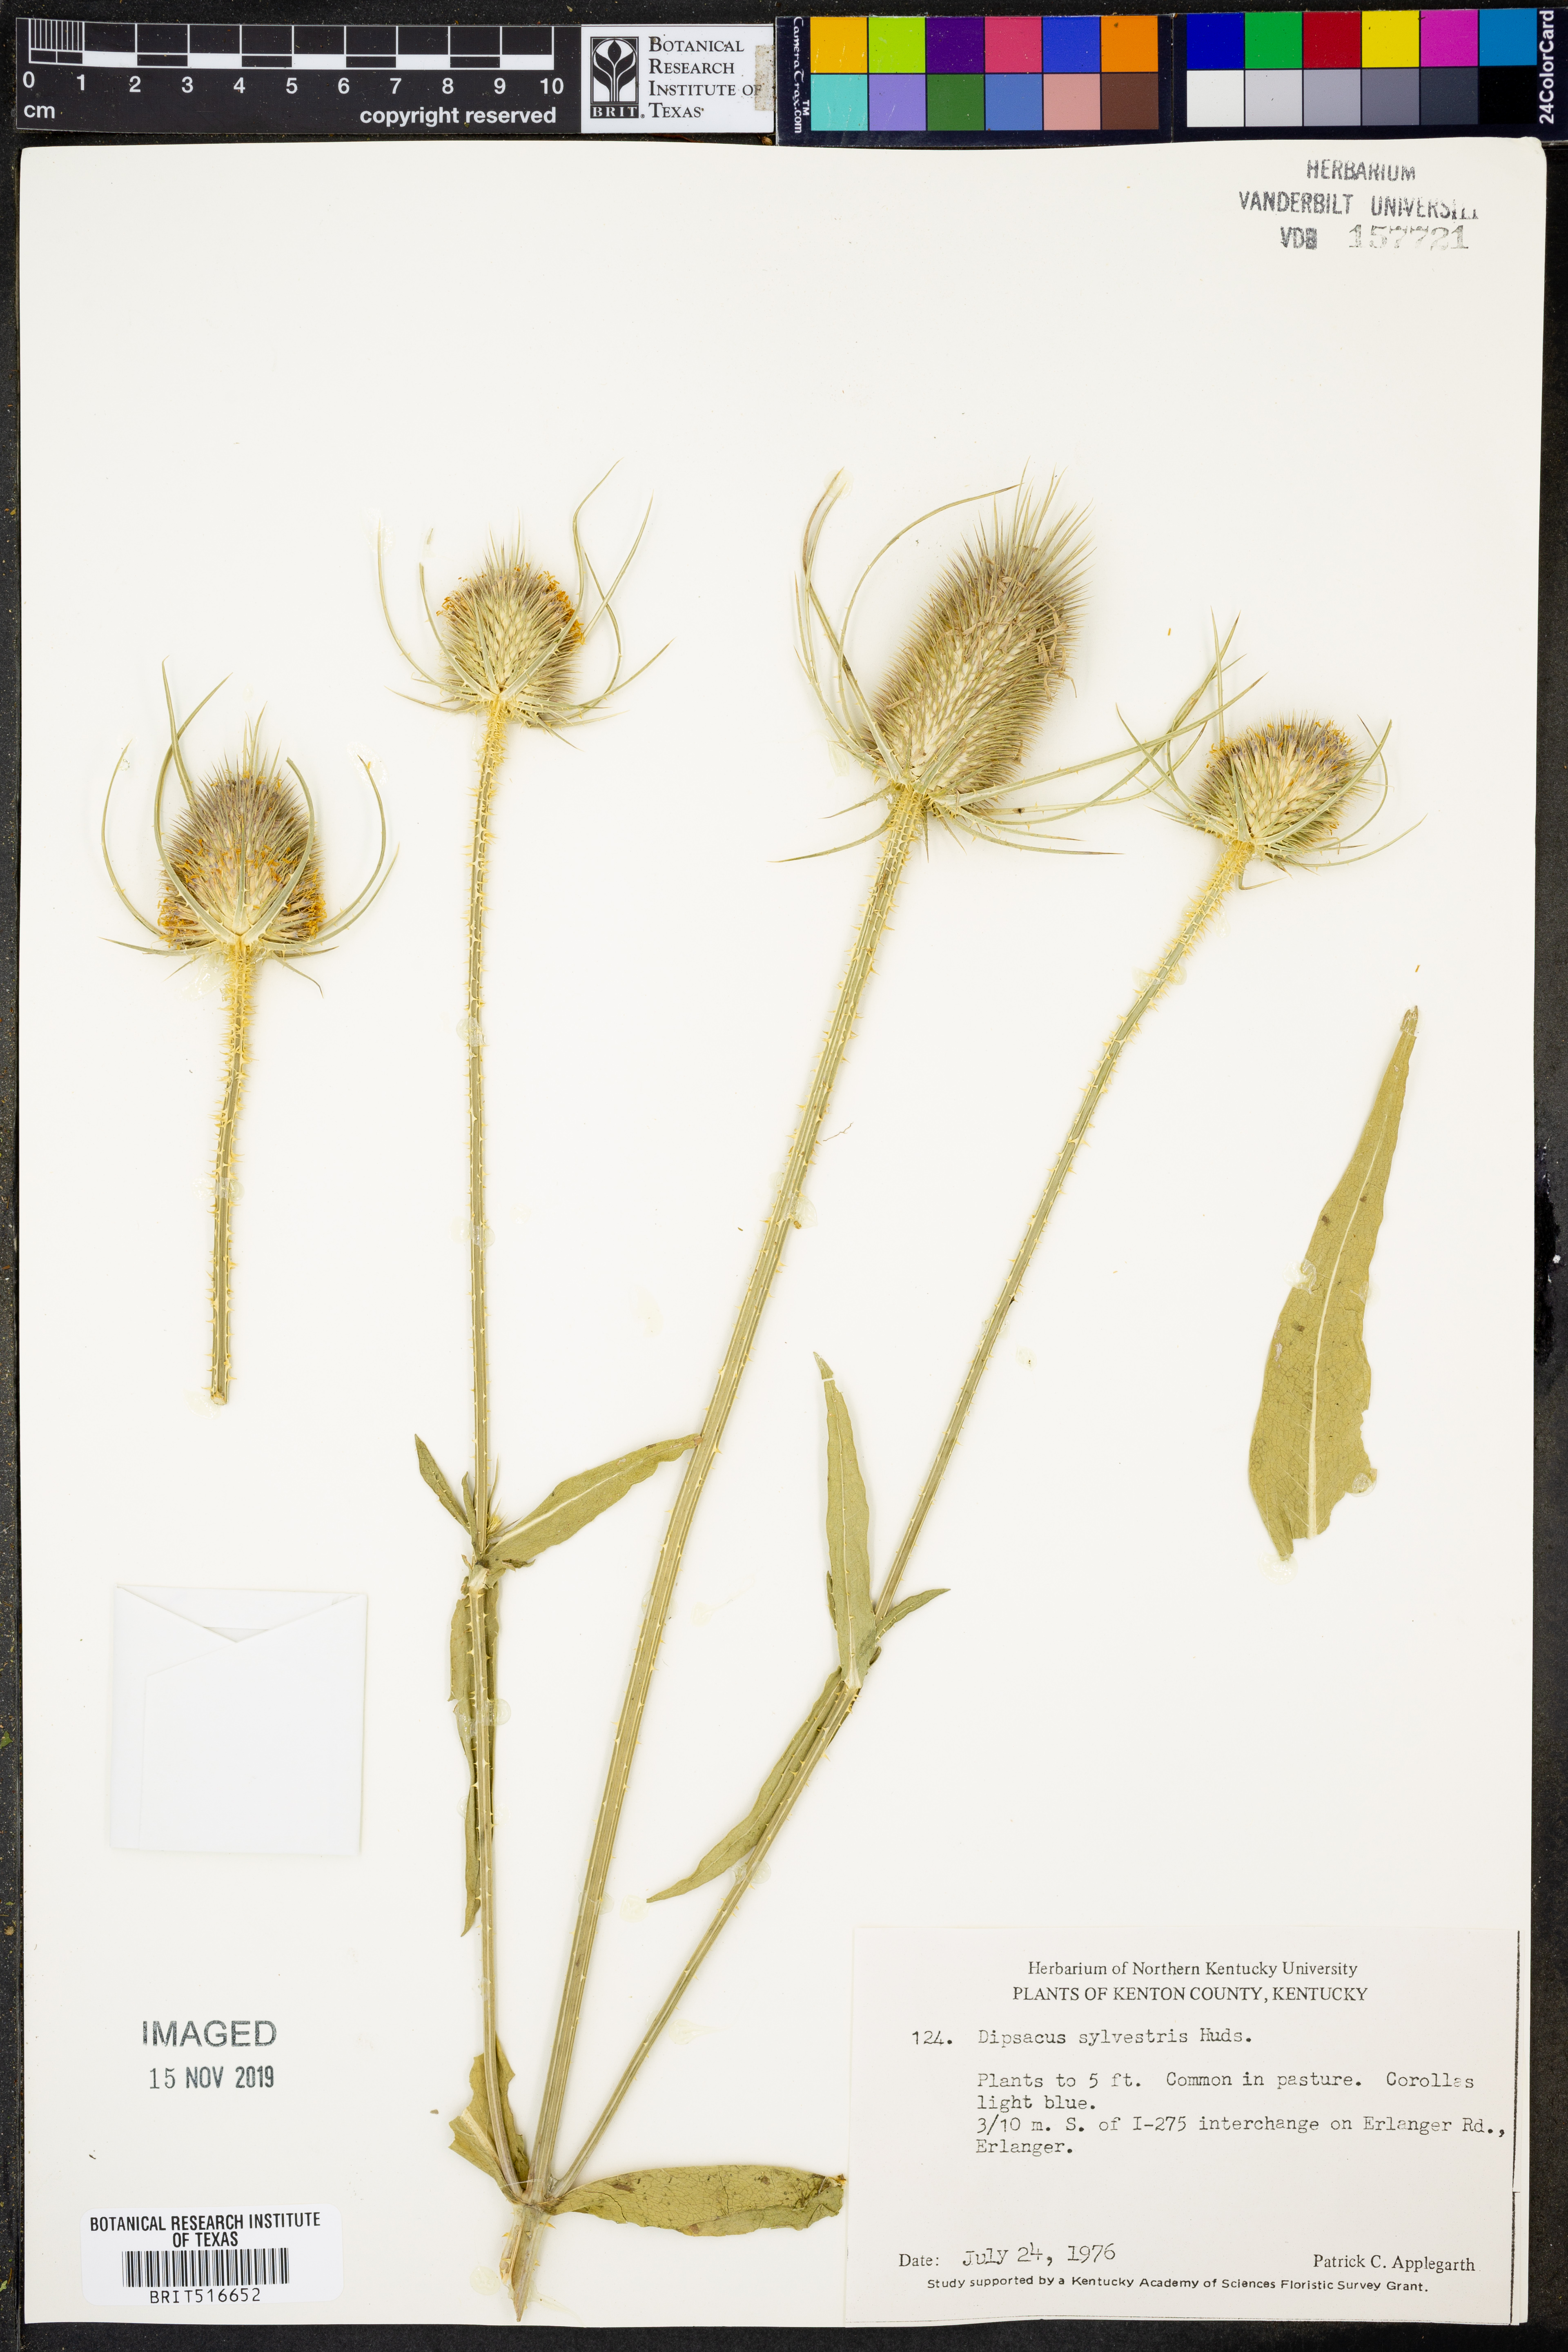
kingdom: Plantae
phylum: Tracheophyta
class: Magnoliopsida
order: Dipsacales
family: Caprifoliaceae
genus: Dipsacus
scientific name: Dipsacus fullonum
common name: Teasel
